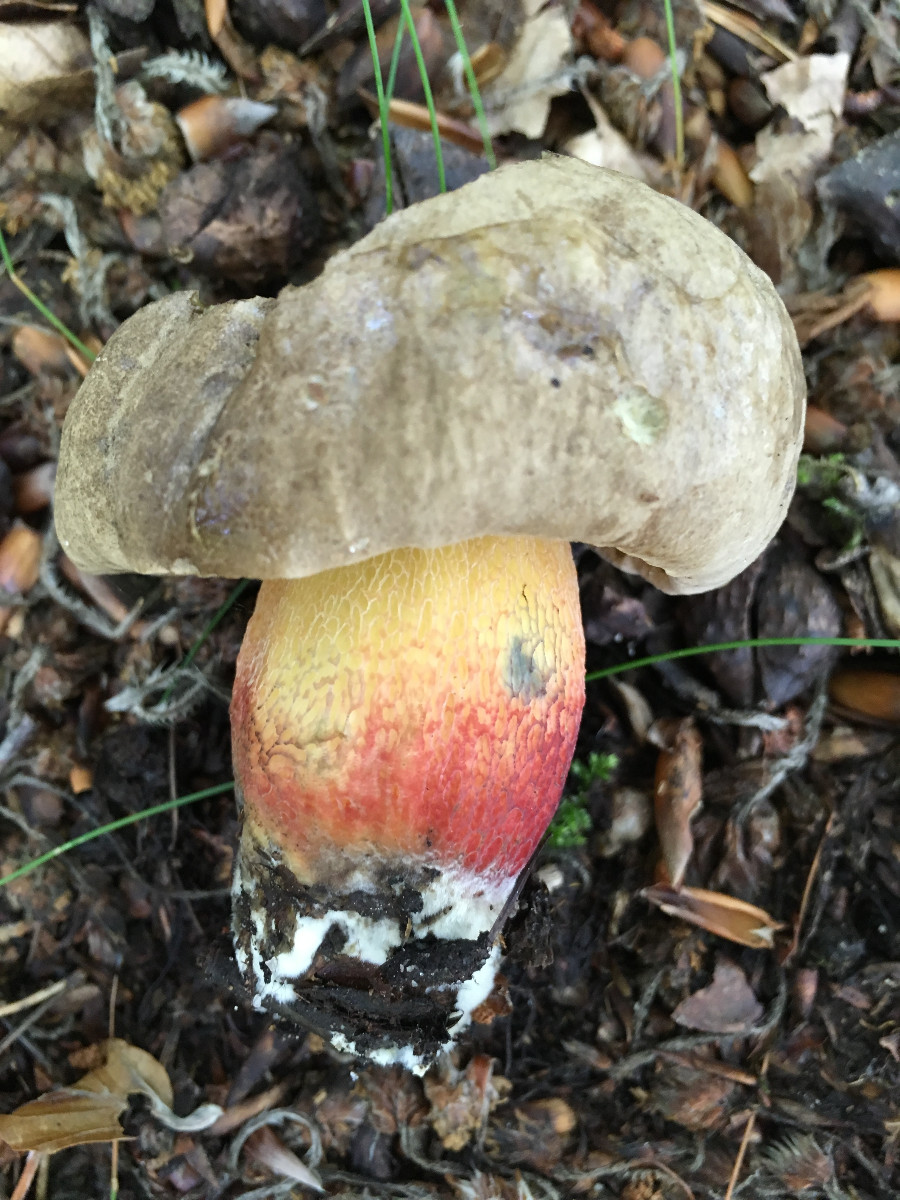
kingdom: Fungi
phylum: Basidiomycota
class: Agaricomycetes
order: Boletales
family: Boletaceae
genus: Caloboletus
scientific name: Caloboletus calopus
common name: skønfodet rørhat
